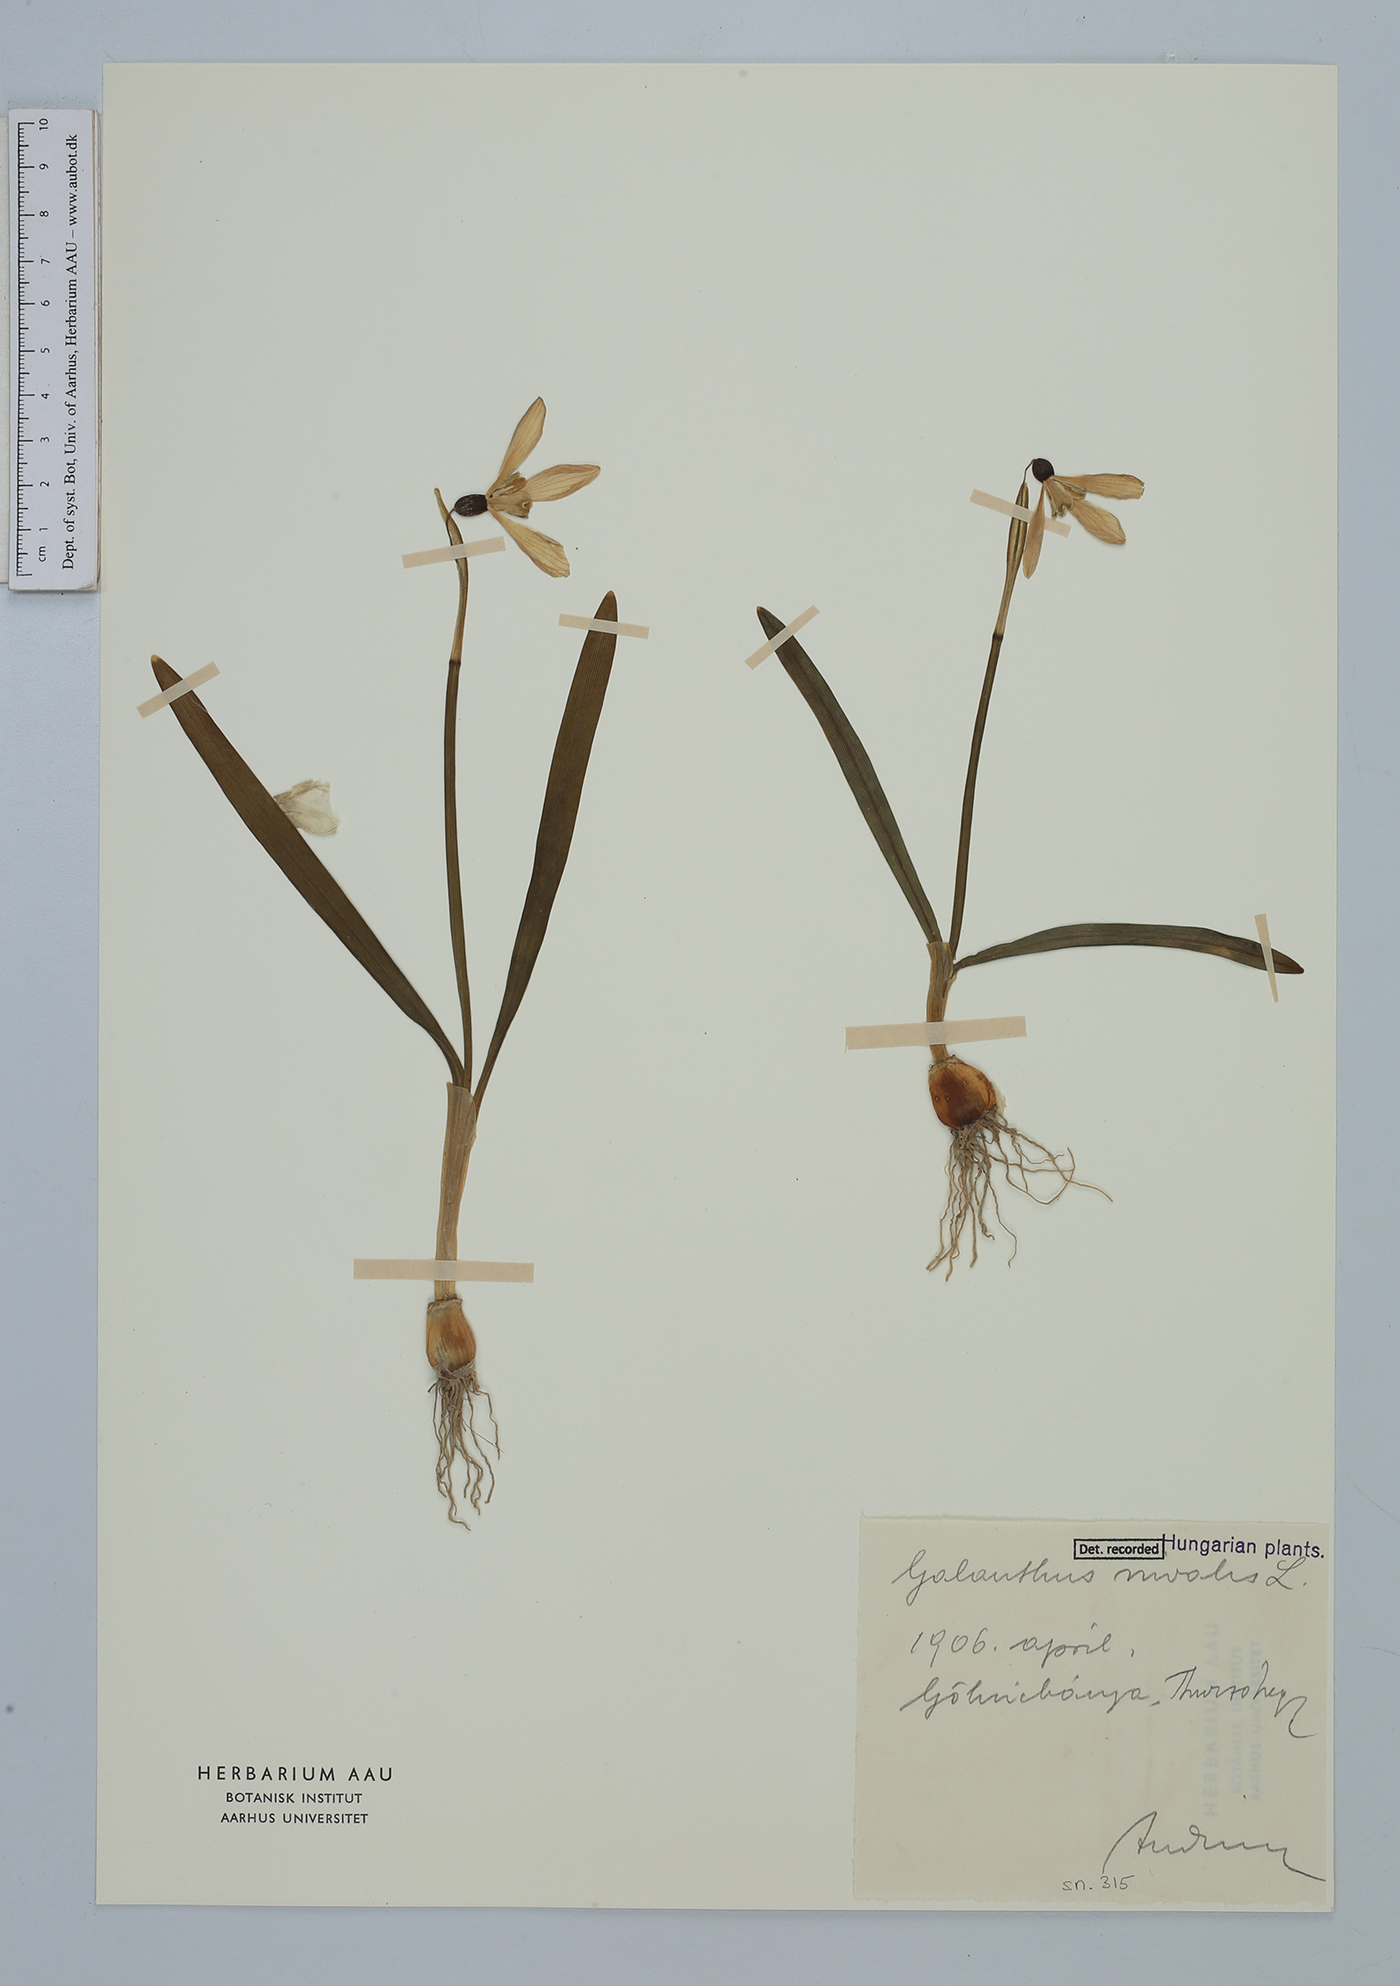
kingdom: Plantae
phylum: Tracheophyta
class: Liliopsida
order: Asparagales
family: Amaryllidaceae
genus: Galanthus
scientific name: Galanthus nivalis
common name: Snowdrop
